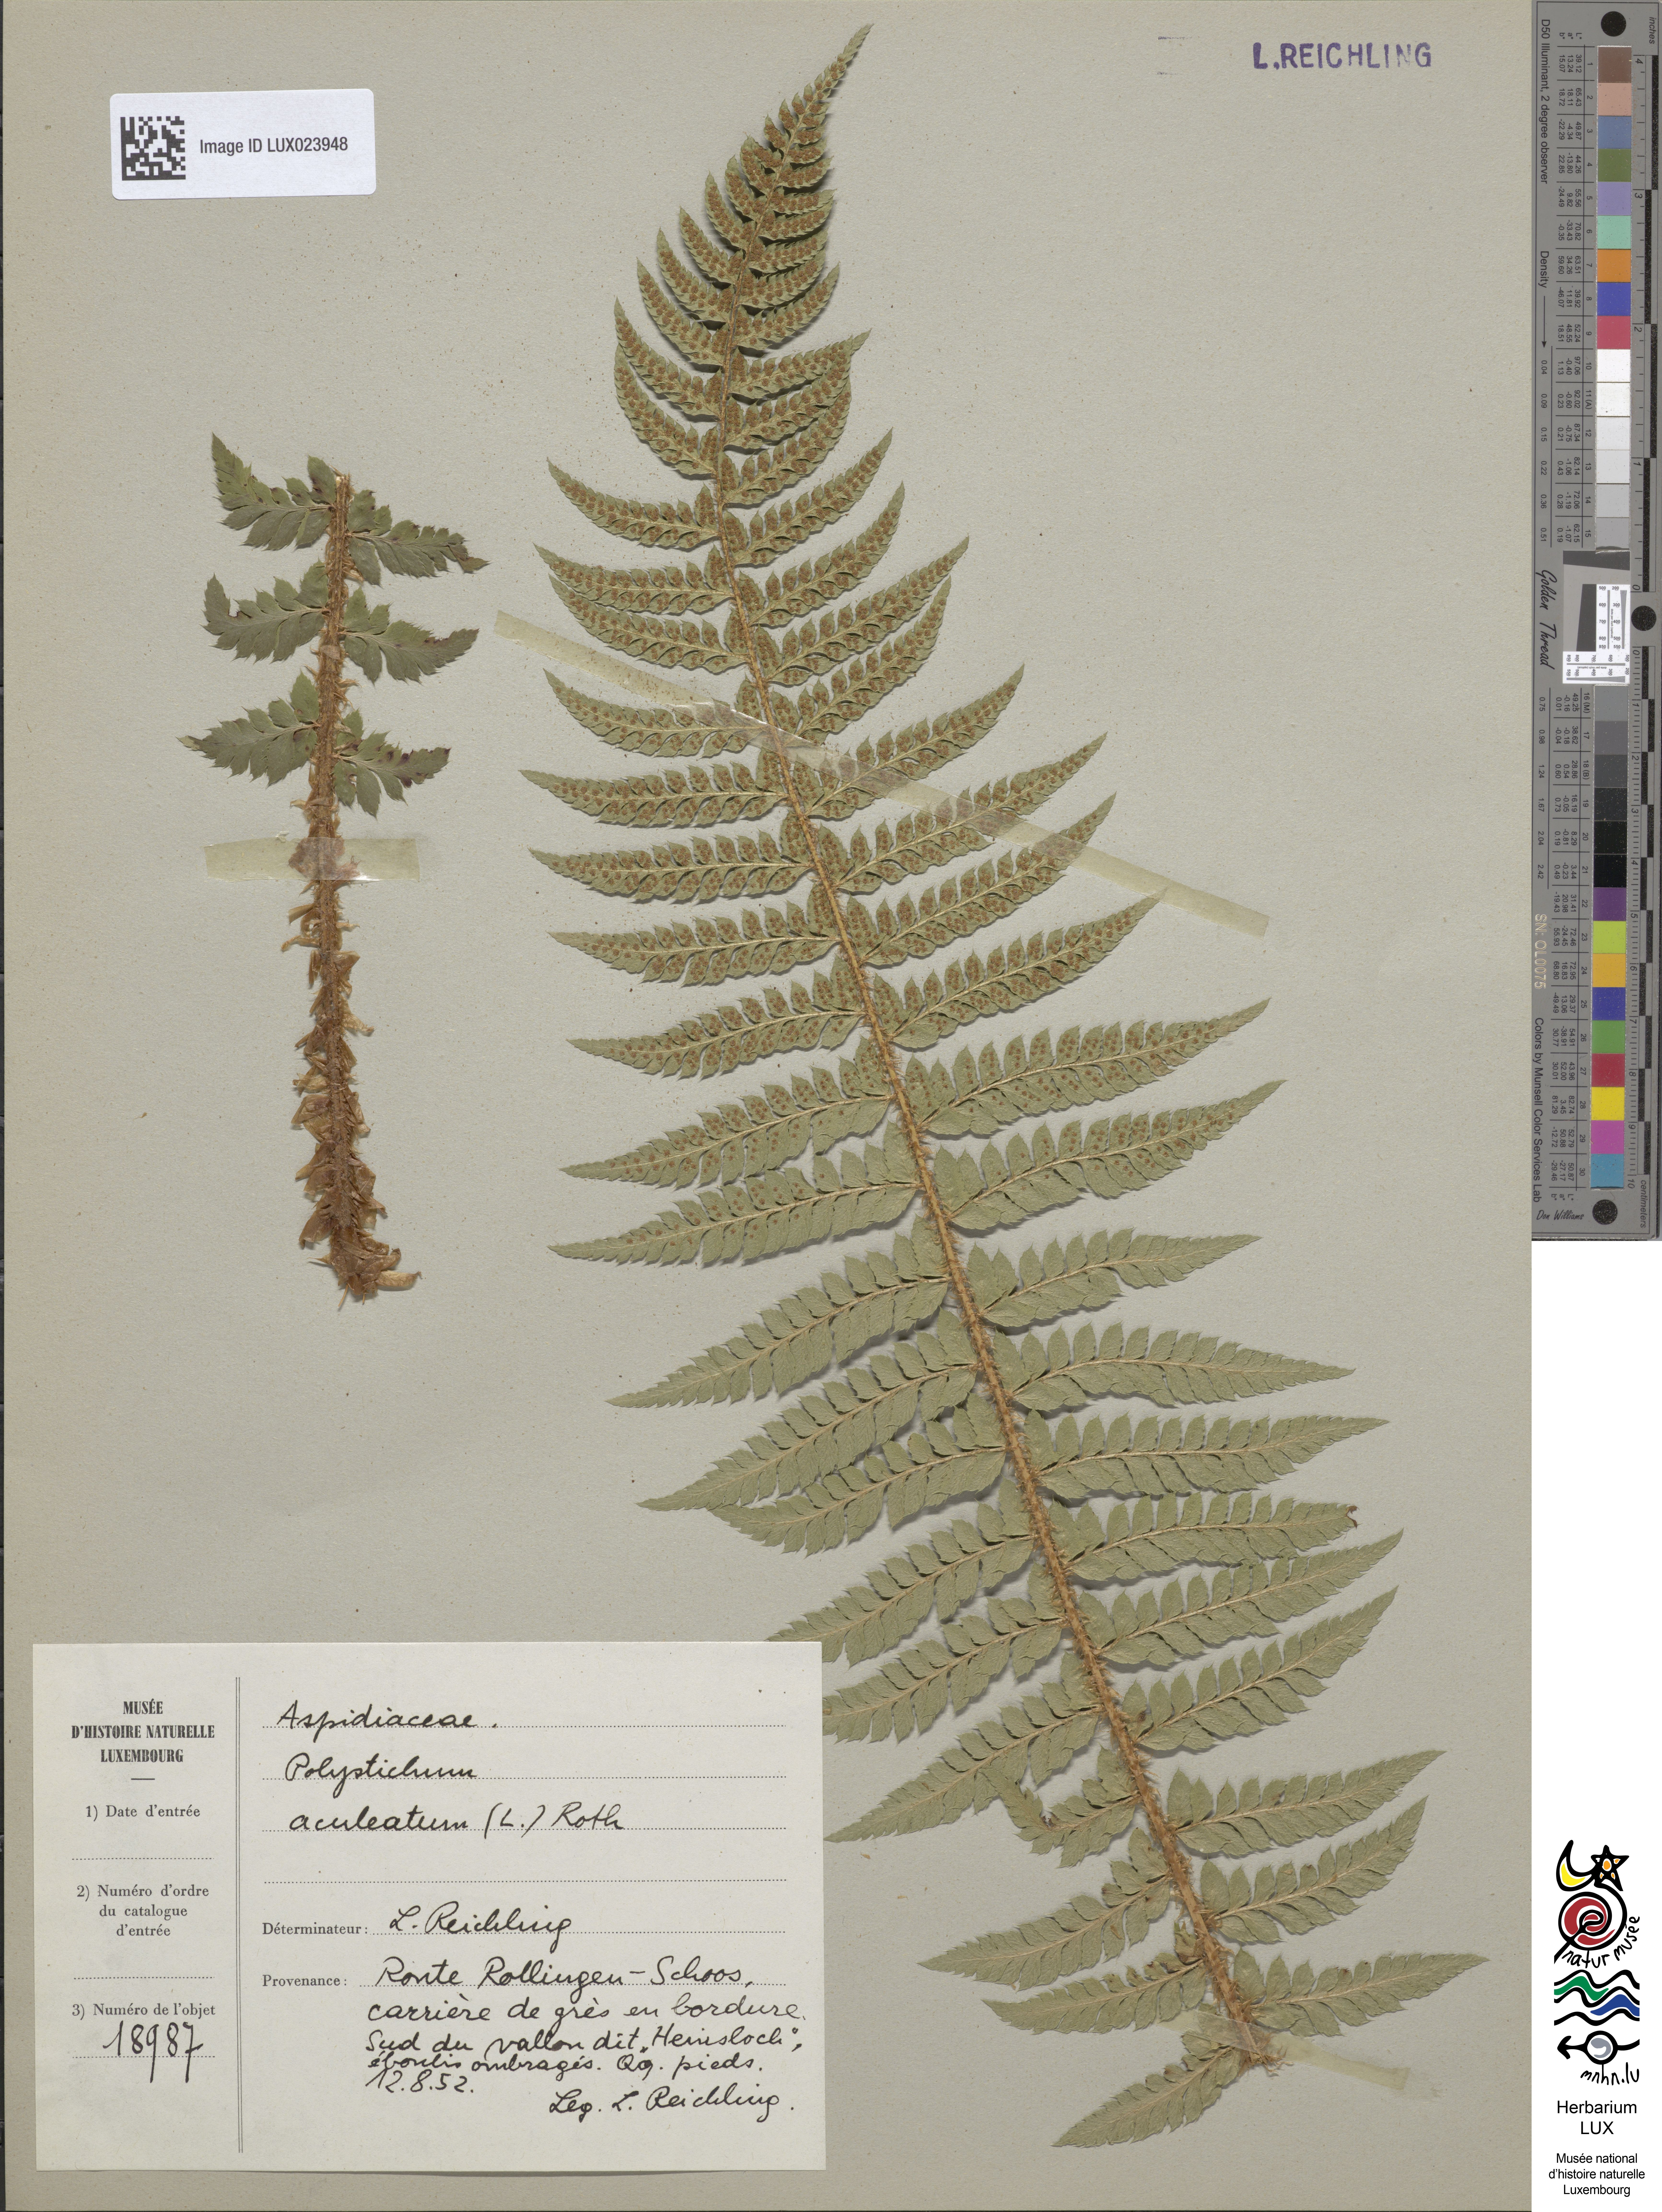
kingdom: Plantae
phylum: Tracheophyta
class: Polypodiopsida
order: Polypodiales
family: Dryopteridaceae
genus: Polystichum
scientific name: Polystichum aculeatum
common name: Hard shield-fern
